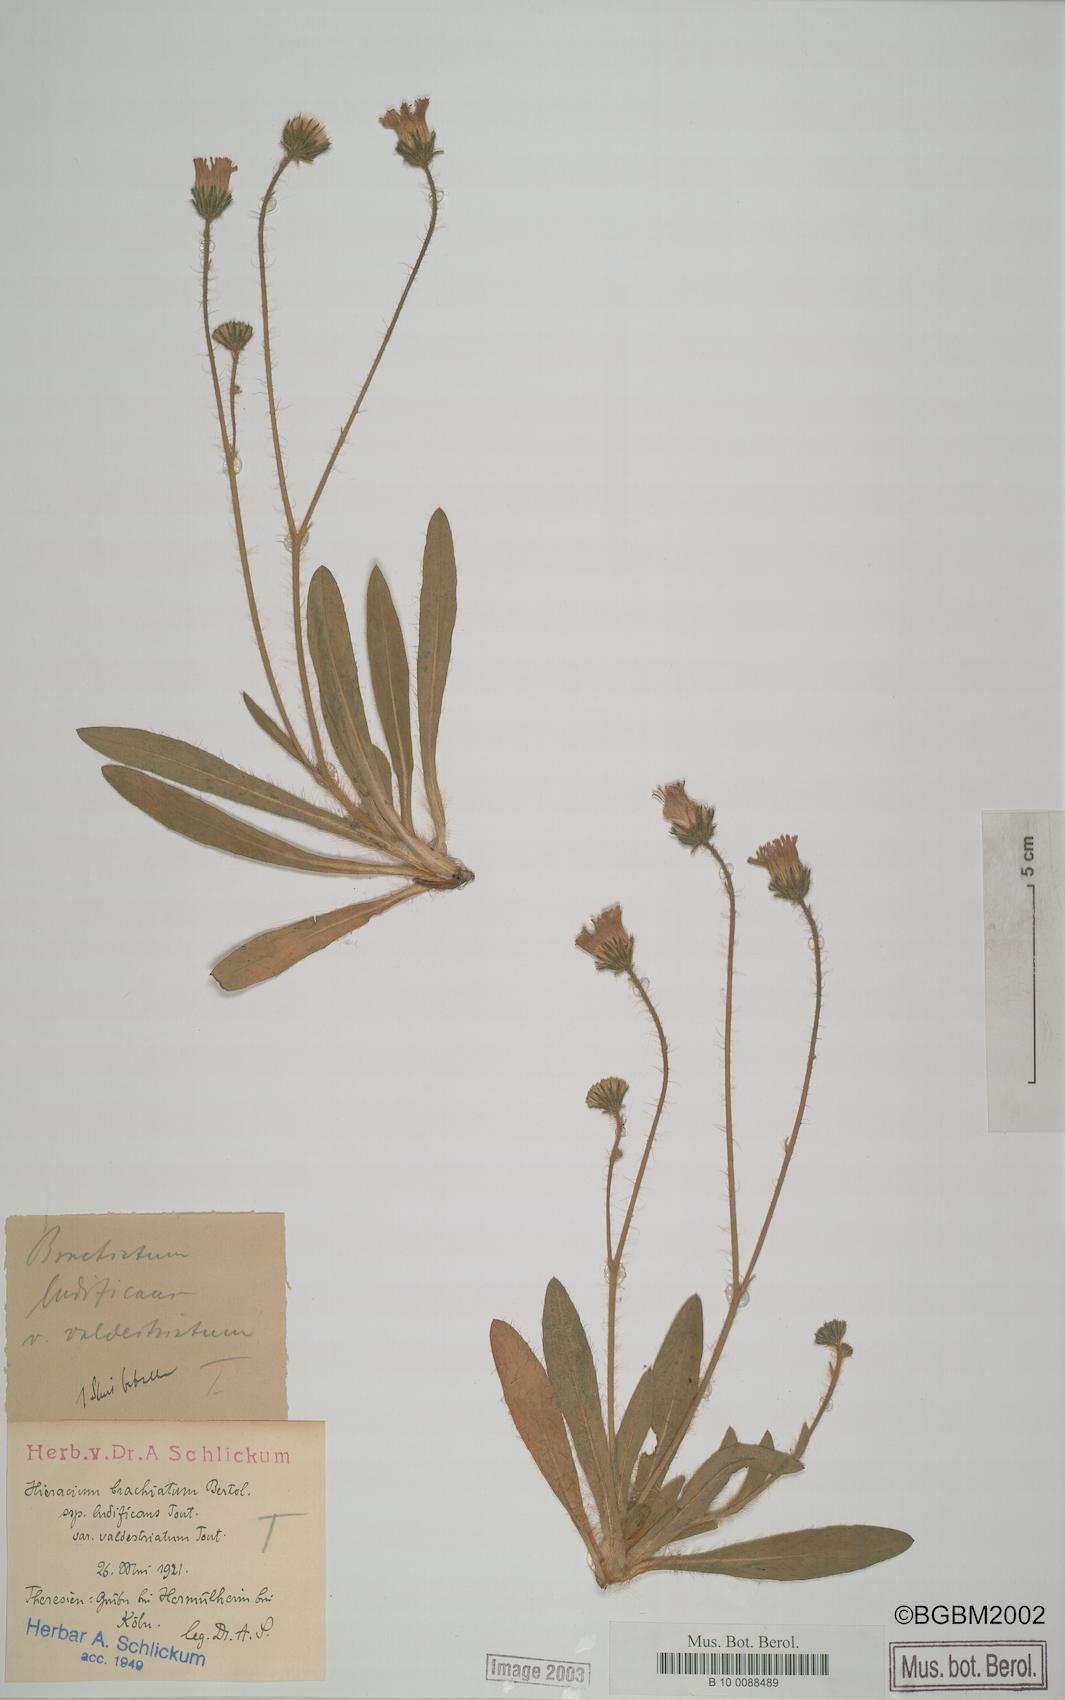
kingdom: Plantae
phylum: Tracheophyta
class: Magnoliopsida
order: Asterales
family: Asteraceae
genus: Pilosella
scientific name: Pilosella acutifolia
